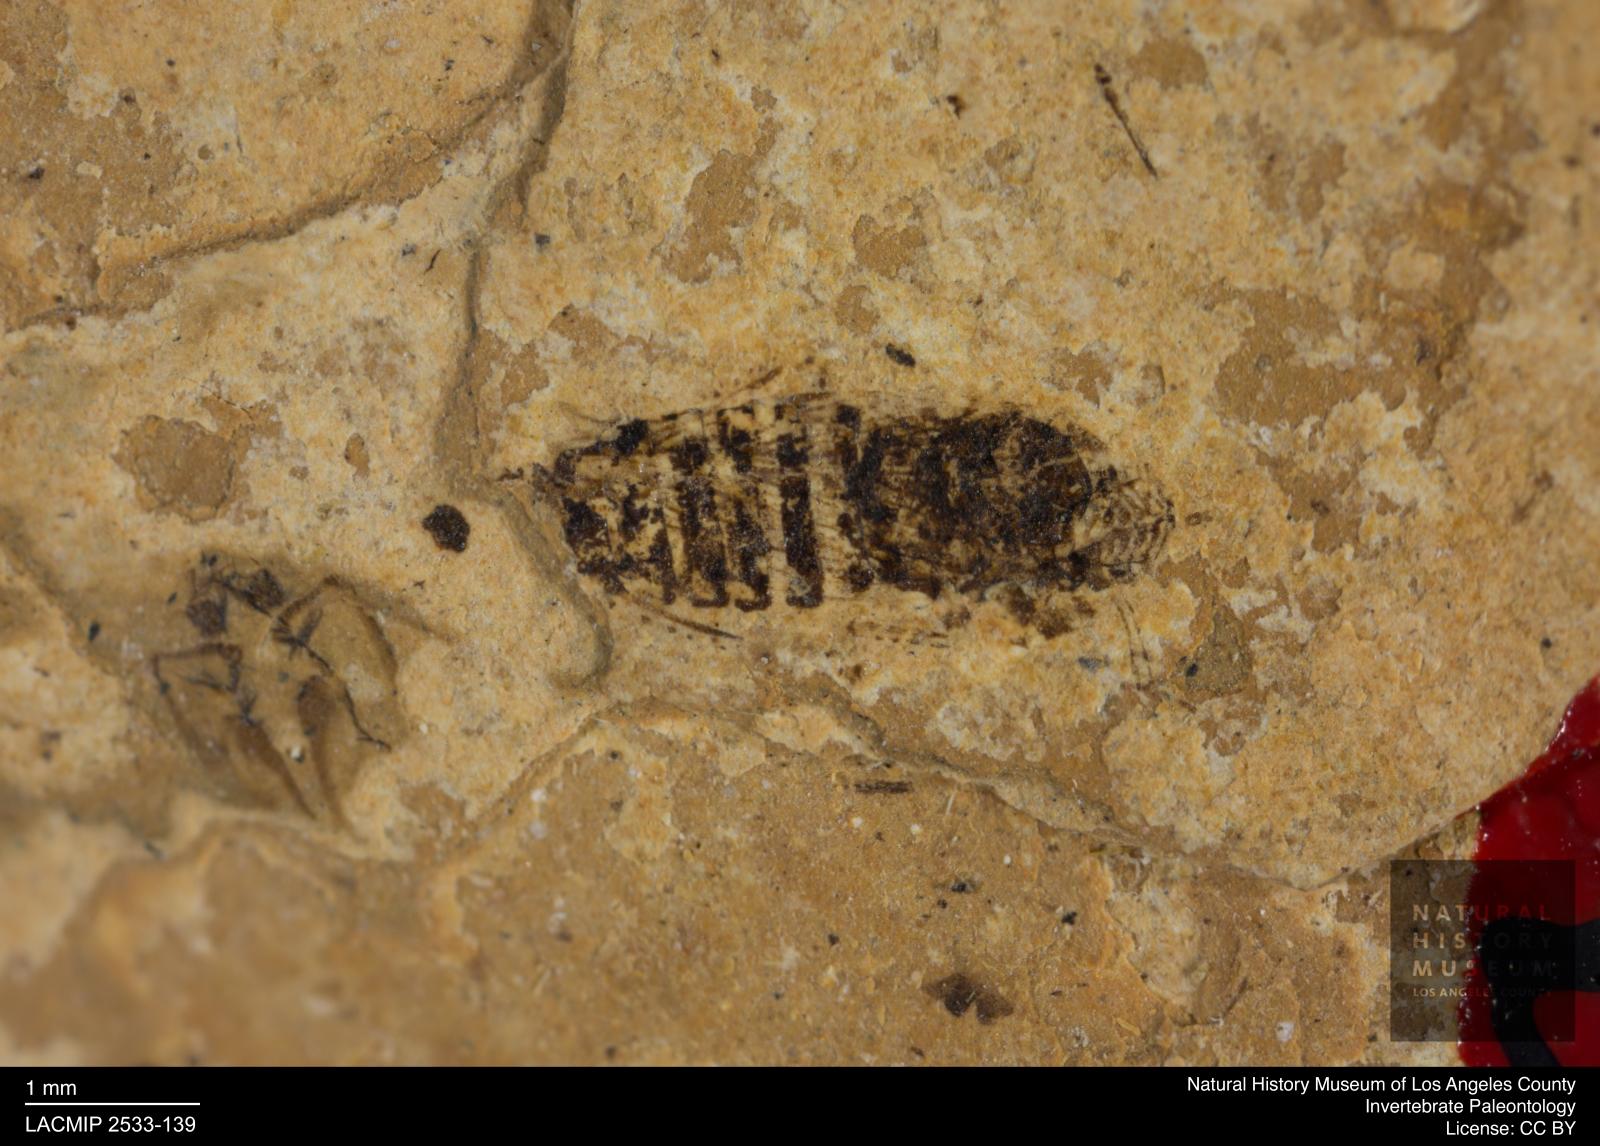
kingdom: Animalia
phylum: Arthropoda
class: Insecta
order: Hemiptera
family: Cicadellidae
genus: Iassus
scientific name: Iassus lunatus
